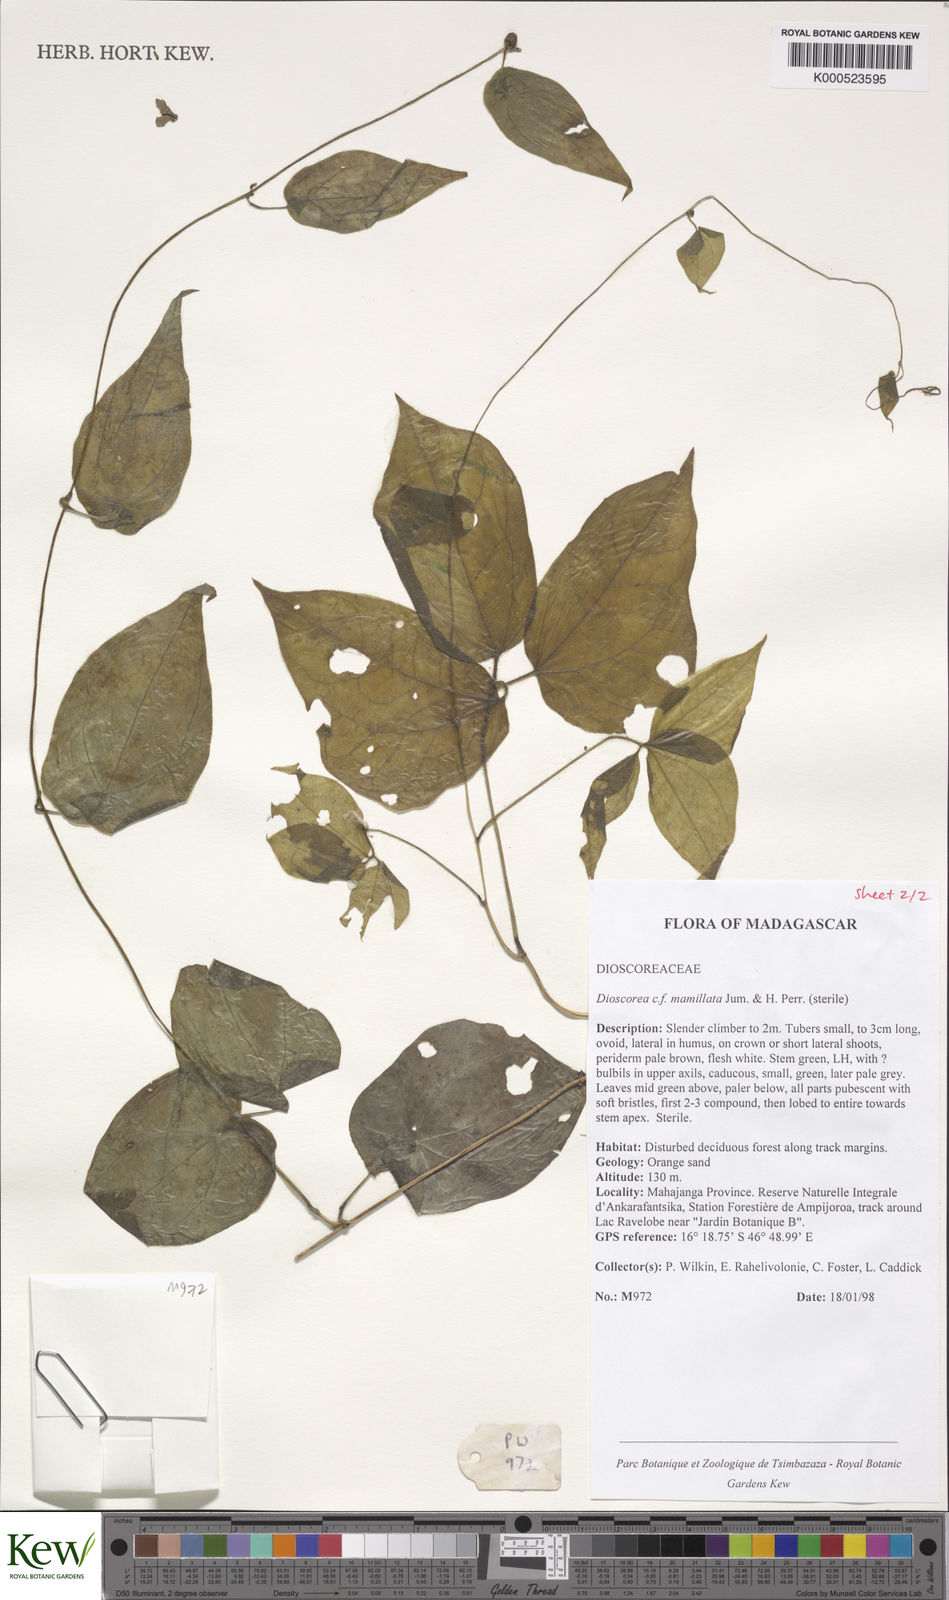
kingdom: Plantae
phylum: Tracheophyta
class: Liliopsida
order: Dioscoreales
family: Dioscoreaceae
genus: Dioscorea
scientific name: Dioscorea mamillata
